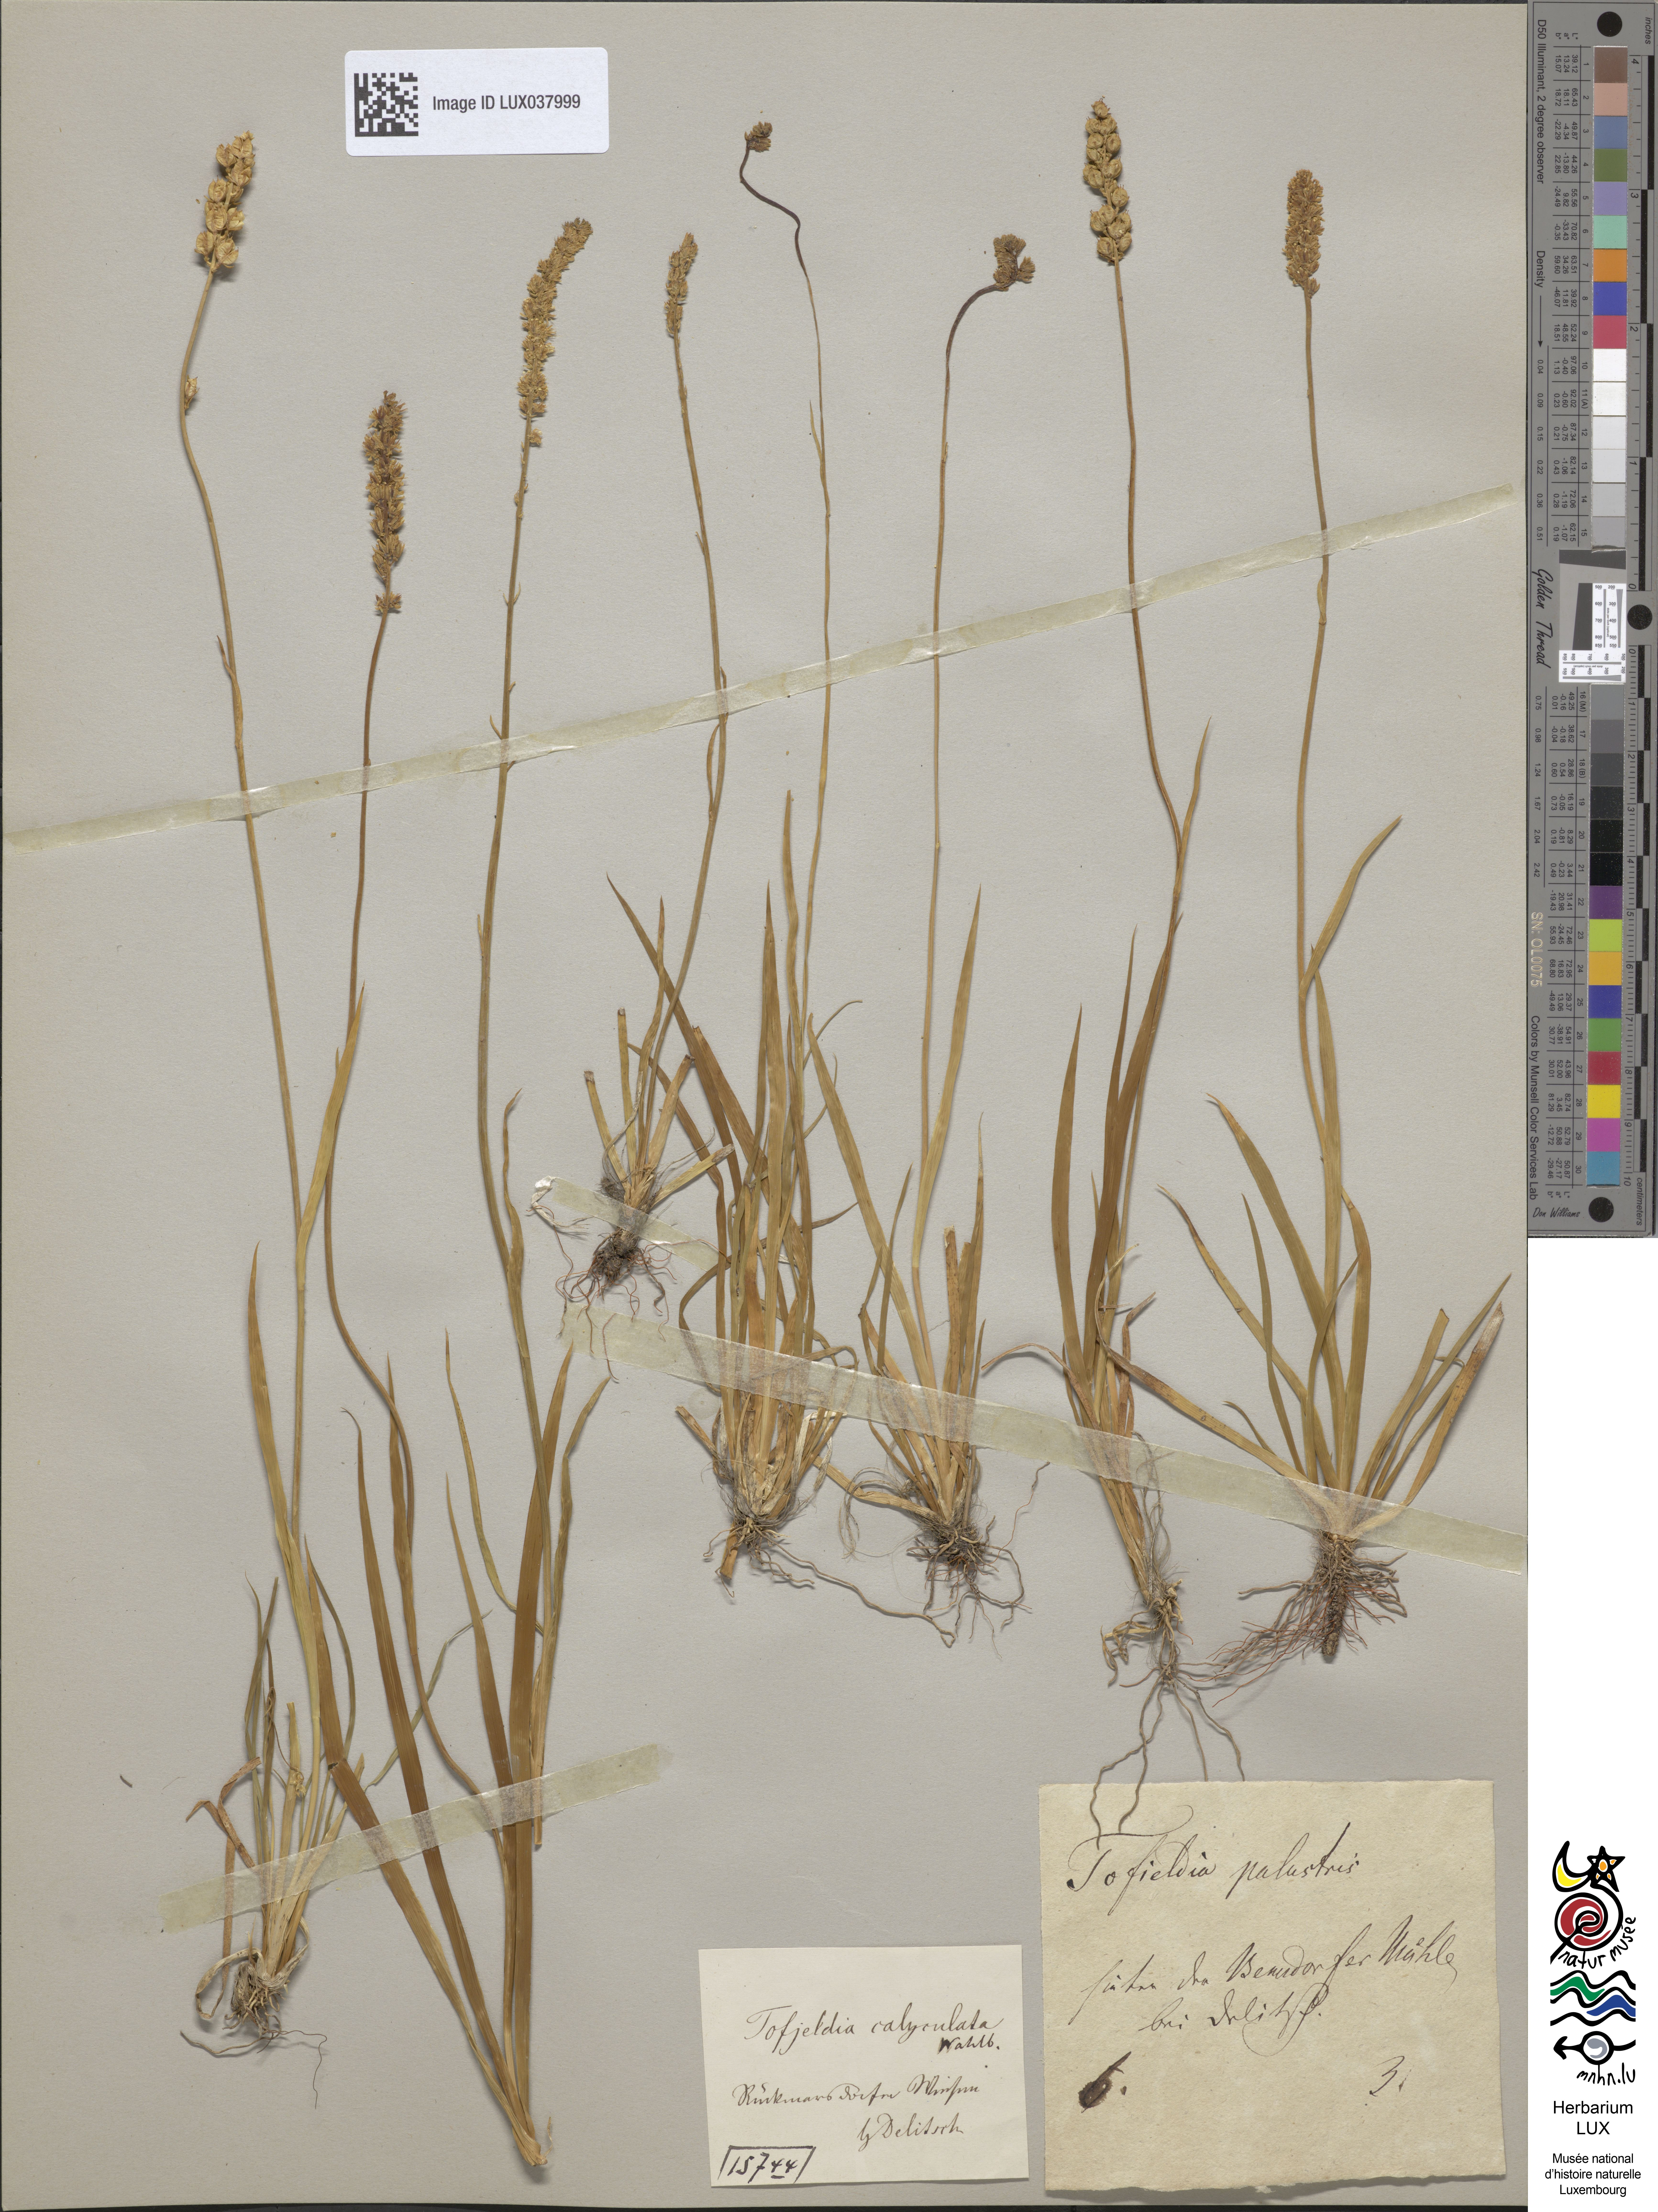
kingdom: Plantae
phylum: Tracheophyta
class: Liliopsida
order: Alismatales
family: Tofieldiaceae
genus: Tofieldia
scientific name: Tofieldia calyculata
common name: German-asphodel
